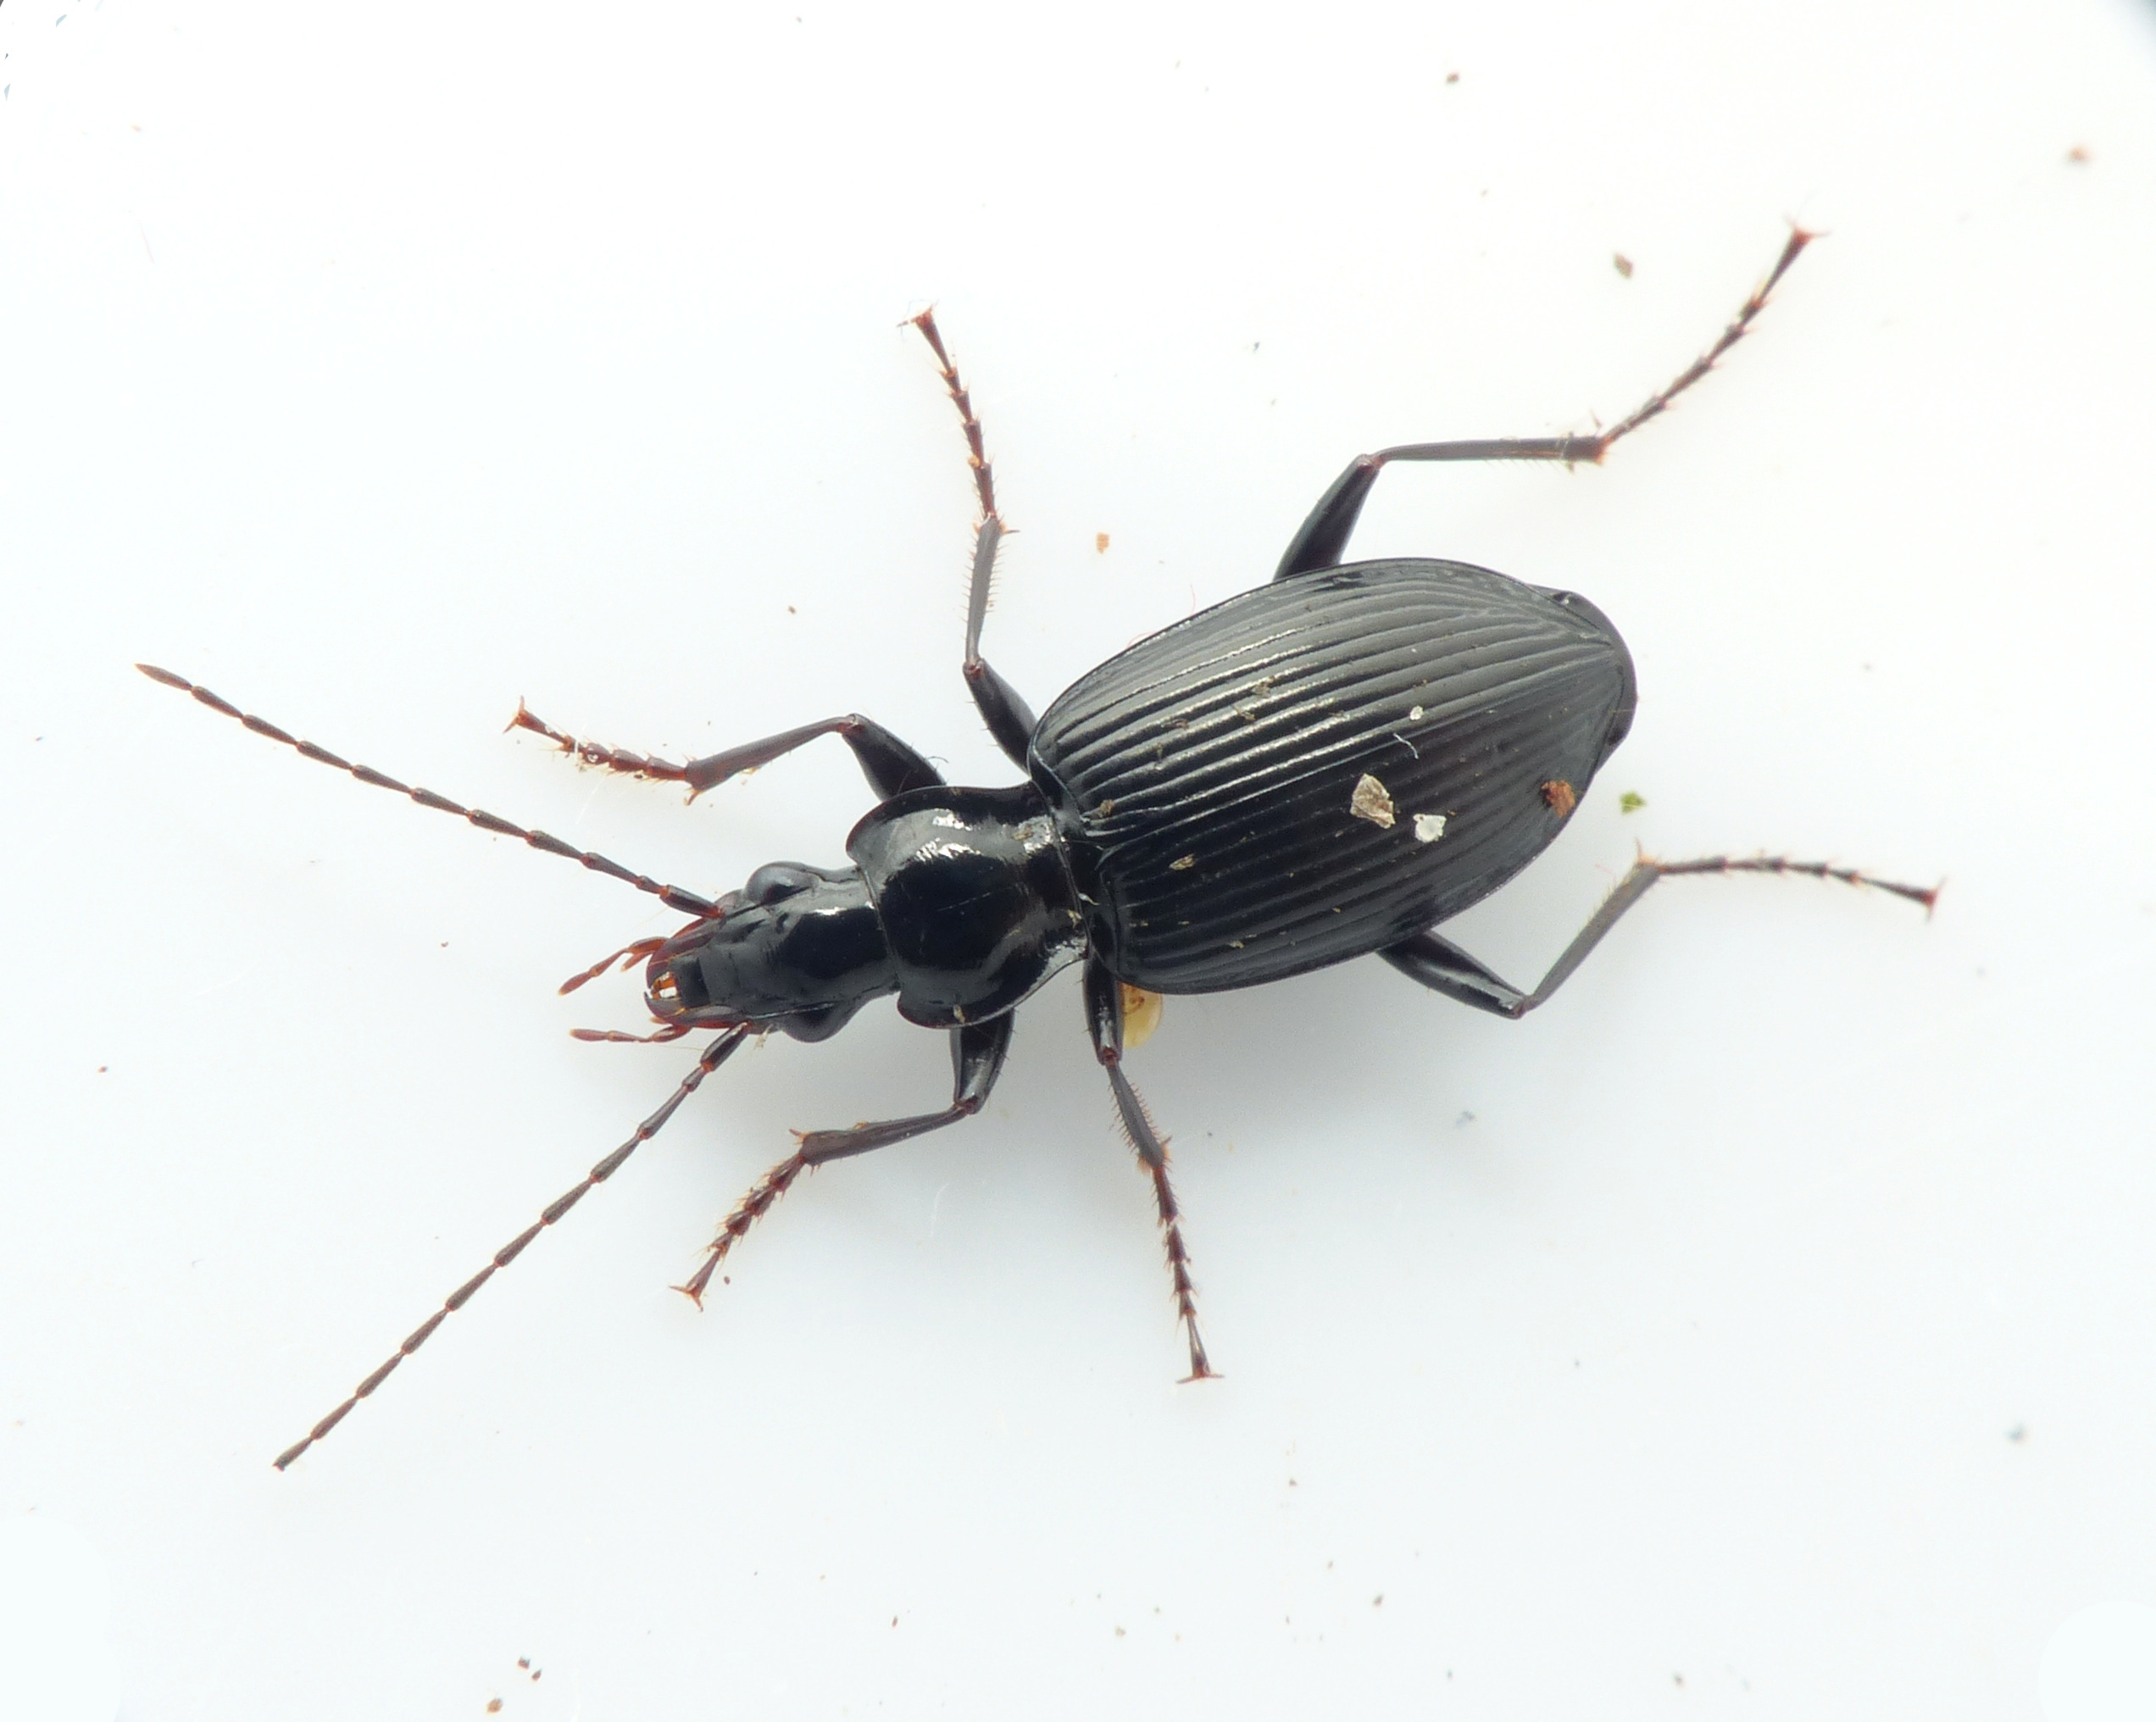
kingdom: Animalia
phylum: Arthropoda
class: Insecta
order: Coleoptera
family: Carabidae
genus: Platynus
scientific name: Platynus assimilis
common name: Skovkvikløber
